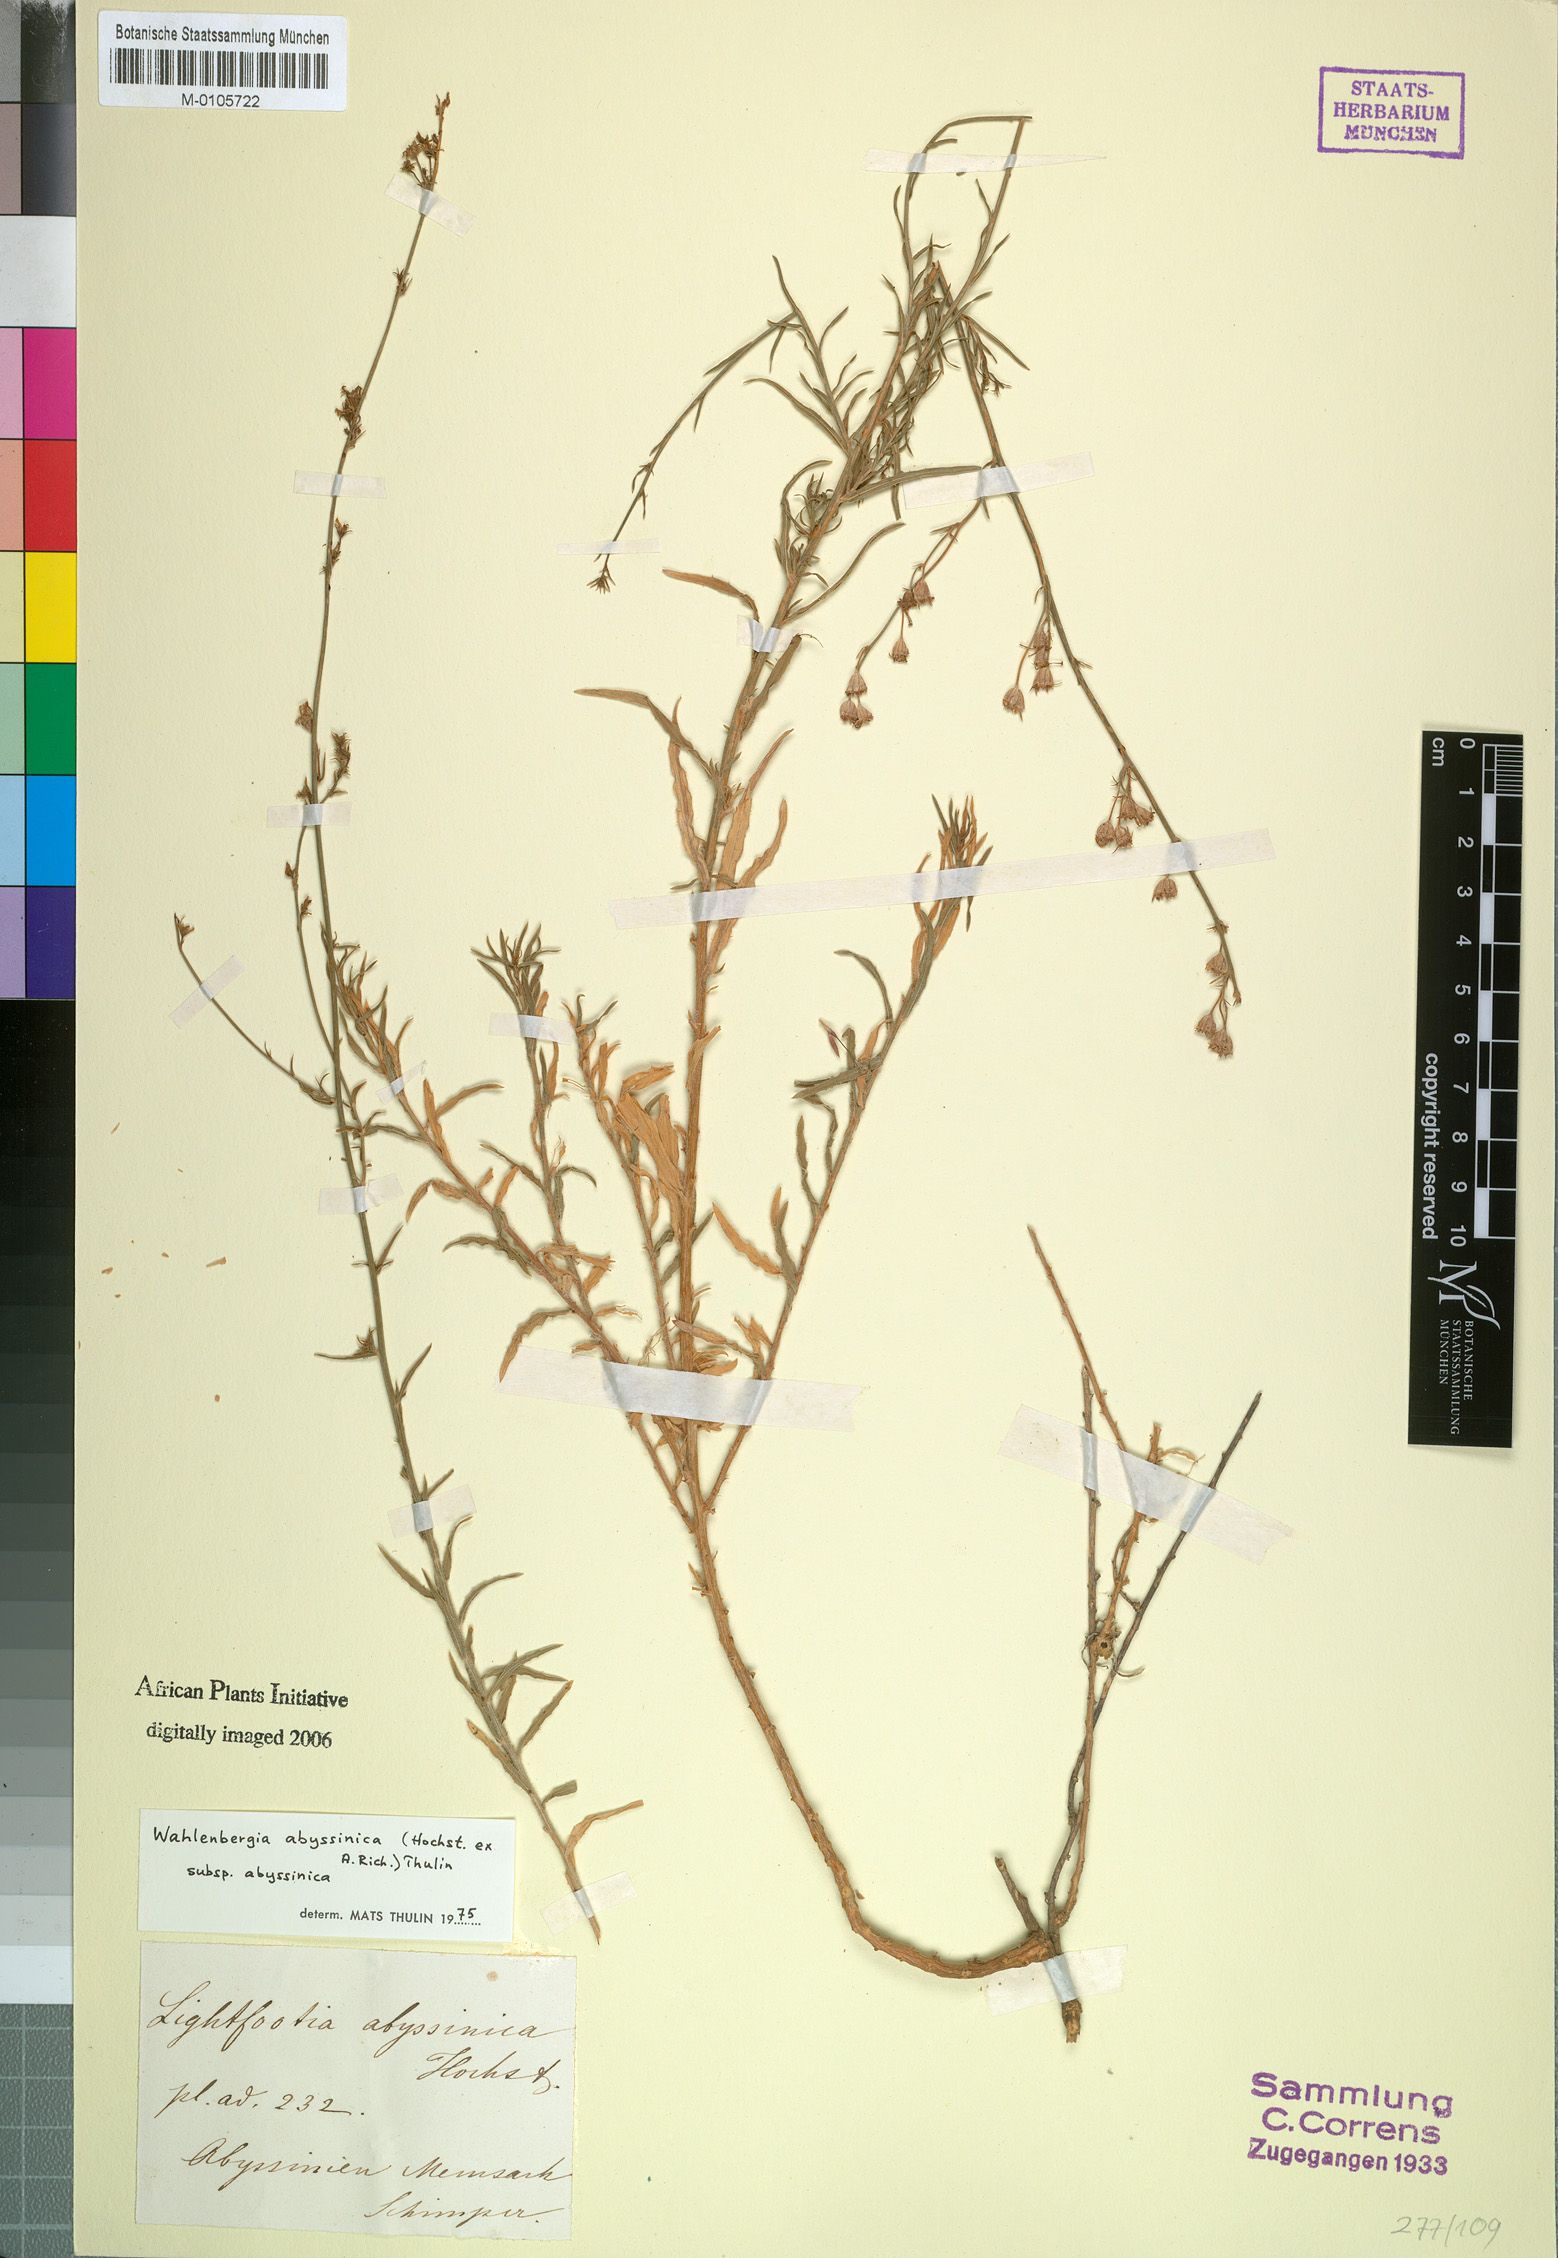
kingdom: Plantae
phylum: Tracheophyta
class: Magnoliopsida
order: Asterales
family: Campanulaceae
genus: Wahlenbergia
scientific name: Wahlenbergia abyssinica
